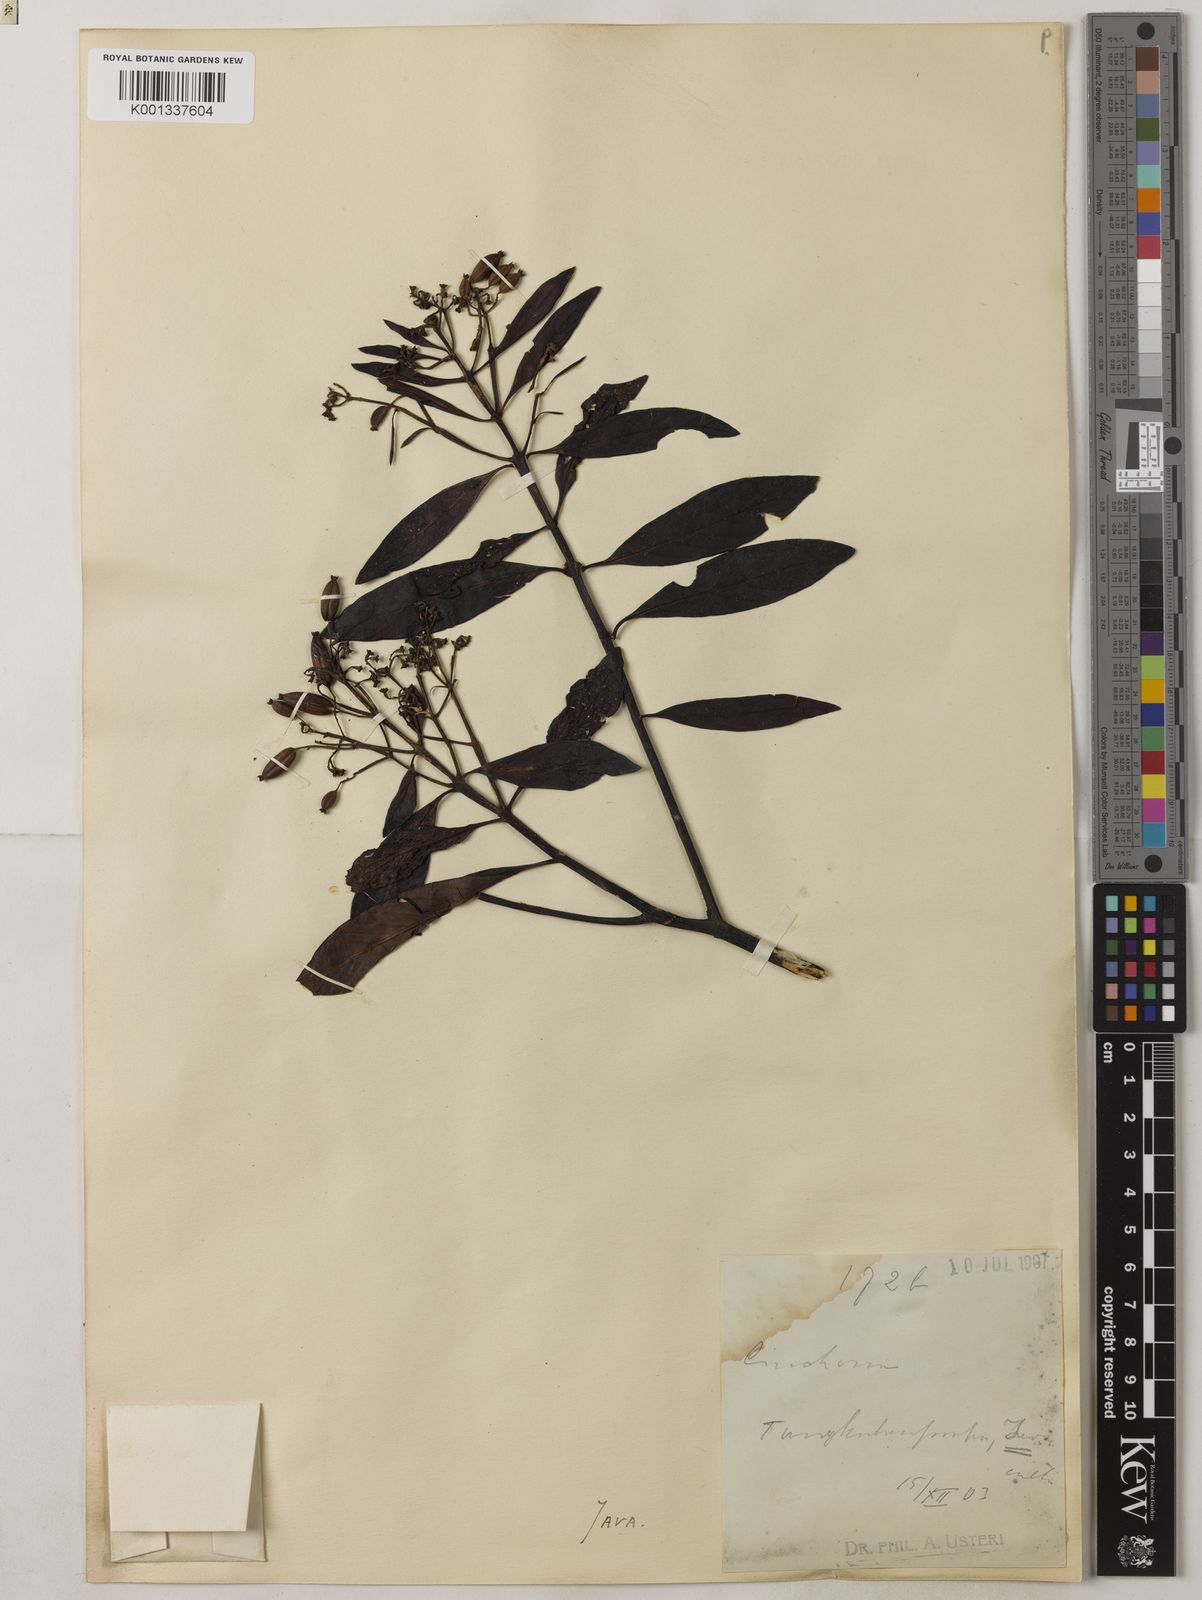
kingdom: Plantae
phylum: Tracheophyta
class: Magnoliopsida
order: Gentianales
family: Rubiaceae
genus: Cinchona
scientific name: Cinchona
